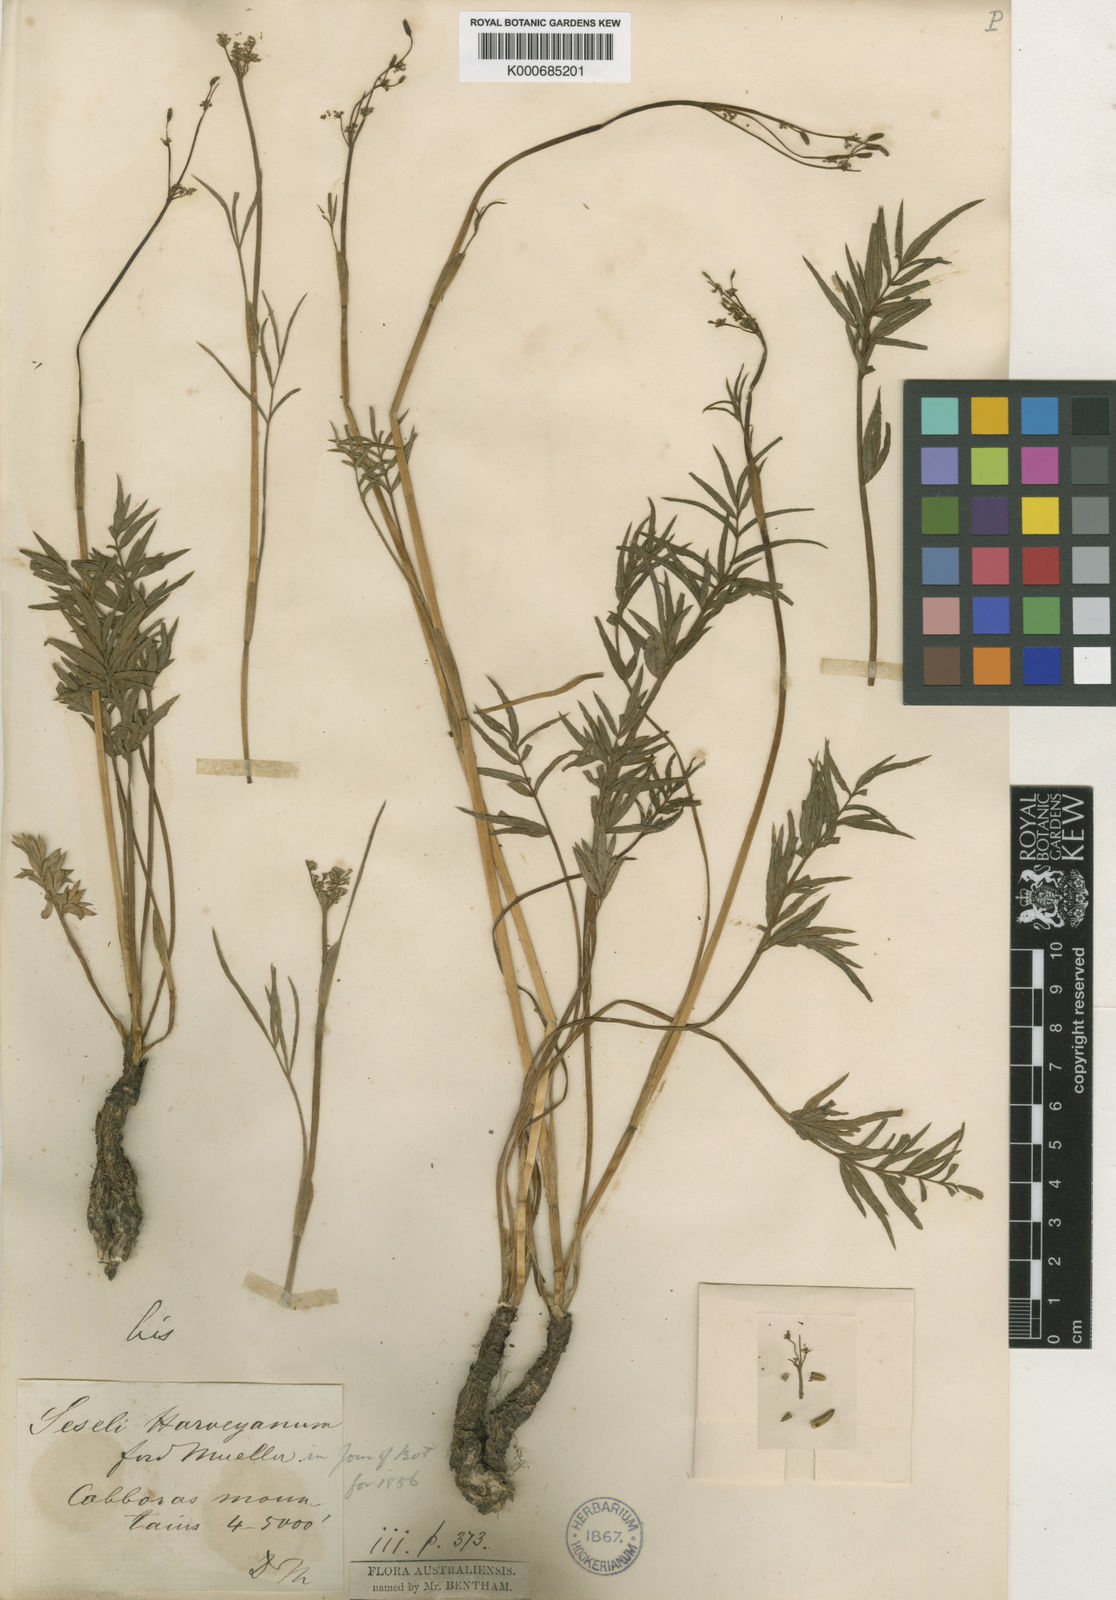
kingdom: Plantae
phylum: Tracheophyta
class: Magnoliopsida
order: Apiales
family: Apiaceae
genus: Gingidia
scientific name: Gingidia harveyana
